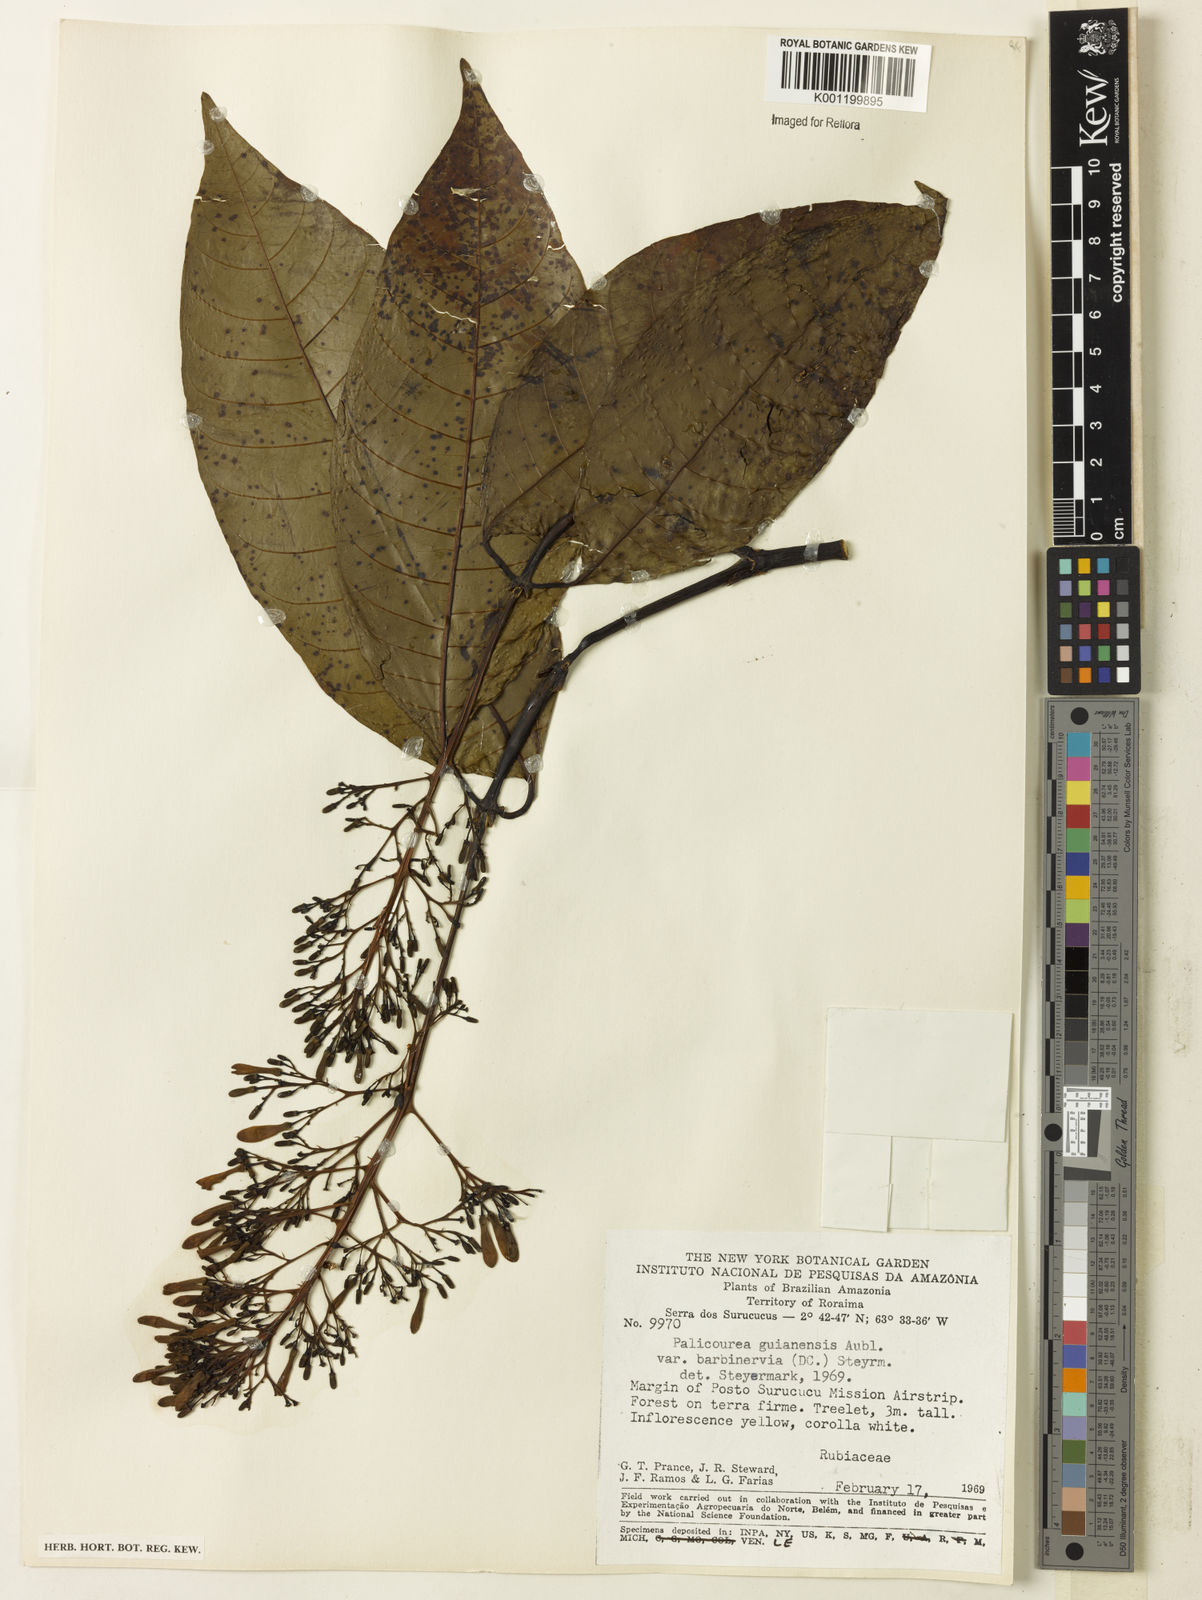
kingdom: Plantae
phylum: Tracheophyta
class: Magnoliopsida
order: Gentianales
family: Rubiaceae
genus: Palicourea
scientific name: Palicourea guianensis
